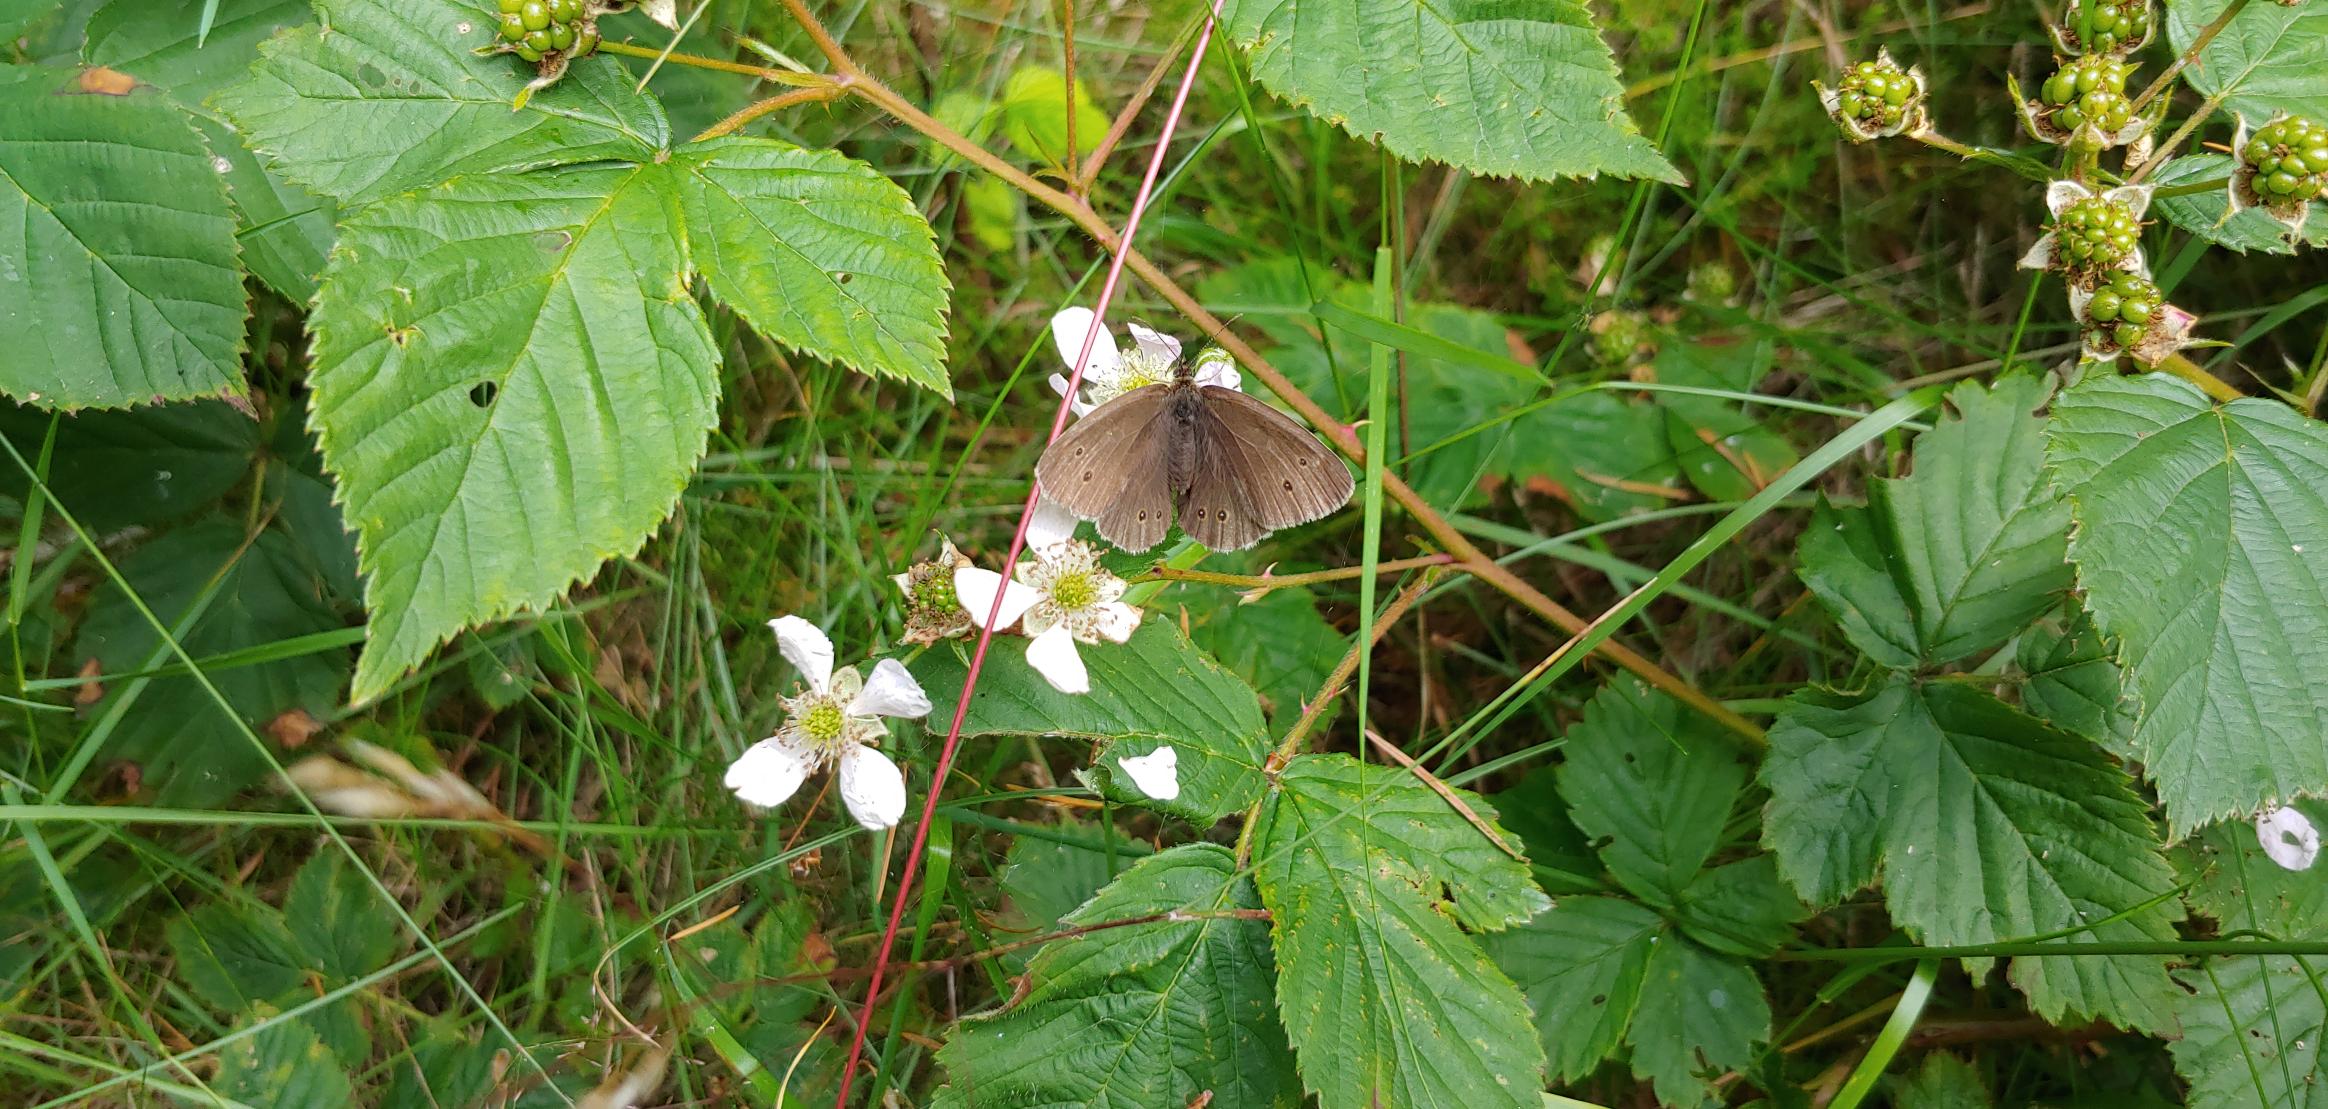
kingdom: Animalia
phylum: Arthropoda
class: Insecta
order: Lepidoptera
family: Nymphalidae
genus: Aphantopus
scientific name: Aphantopus hyperantus
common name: Engrandøje
